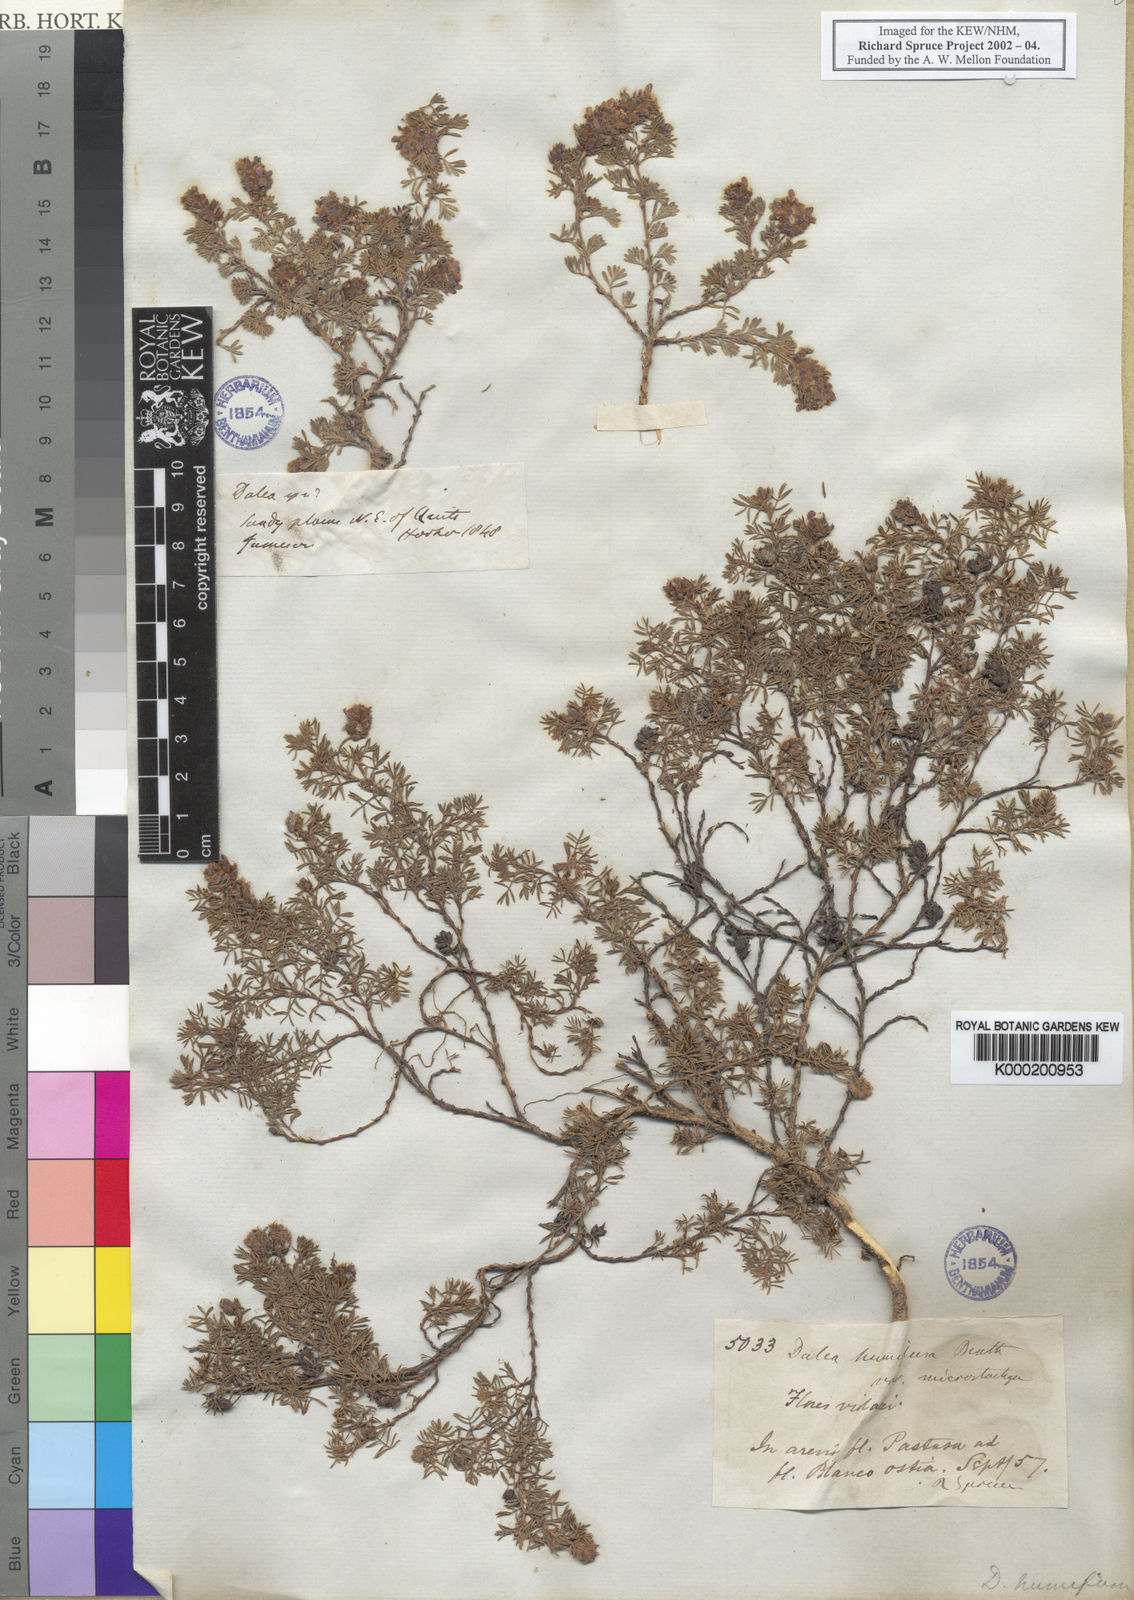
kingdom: Plantae
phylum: Tracheophyta
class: Magnoliopsida
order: Fabales
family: Fabaceae
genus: Dalea
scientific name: Dalea humifusa
